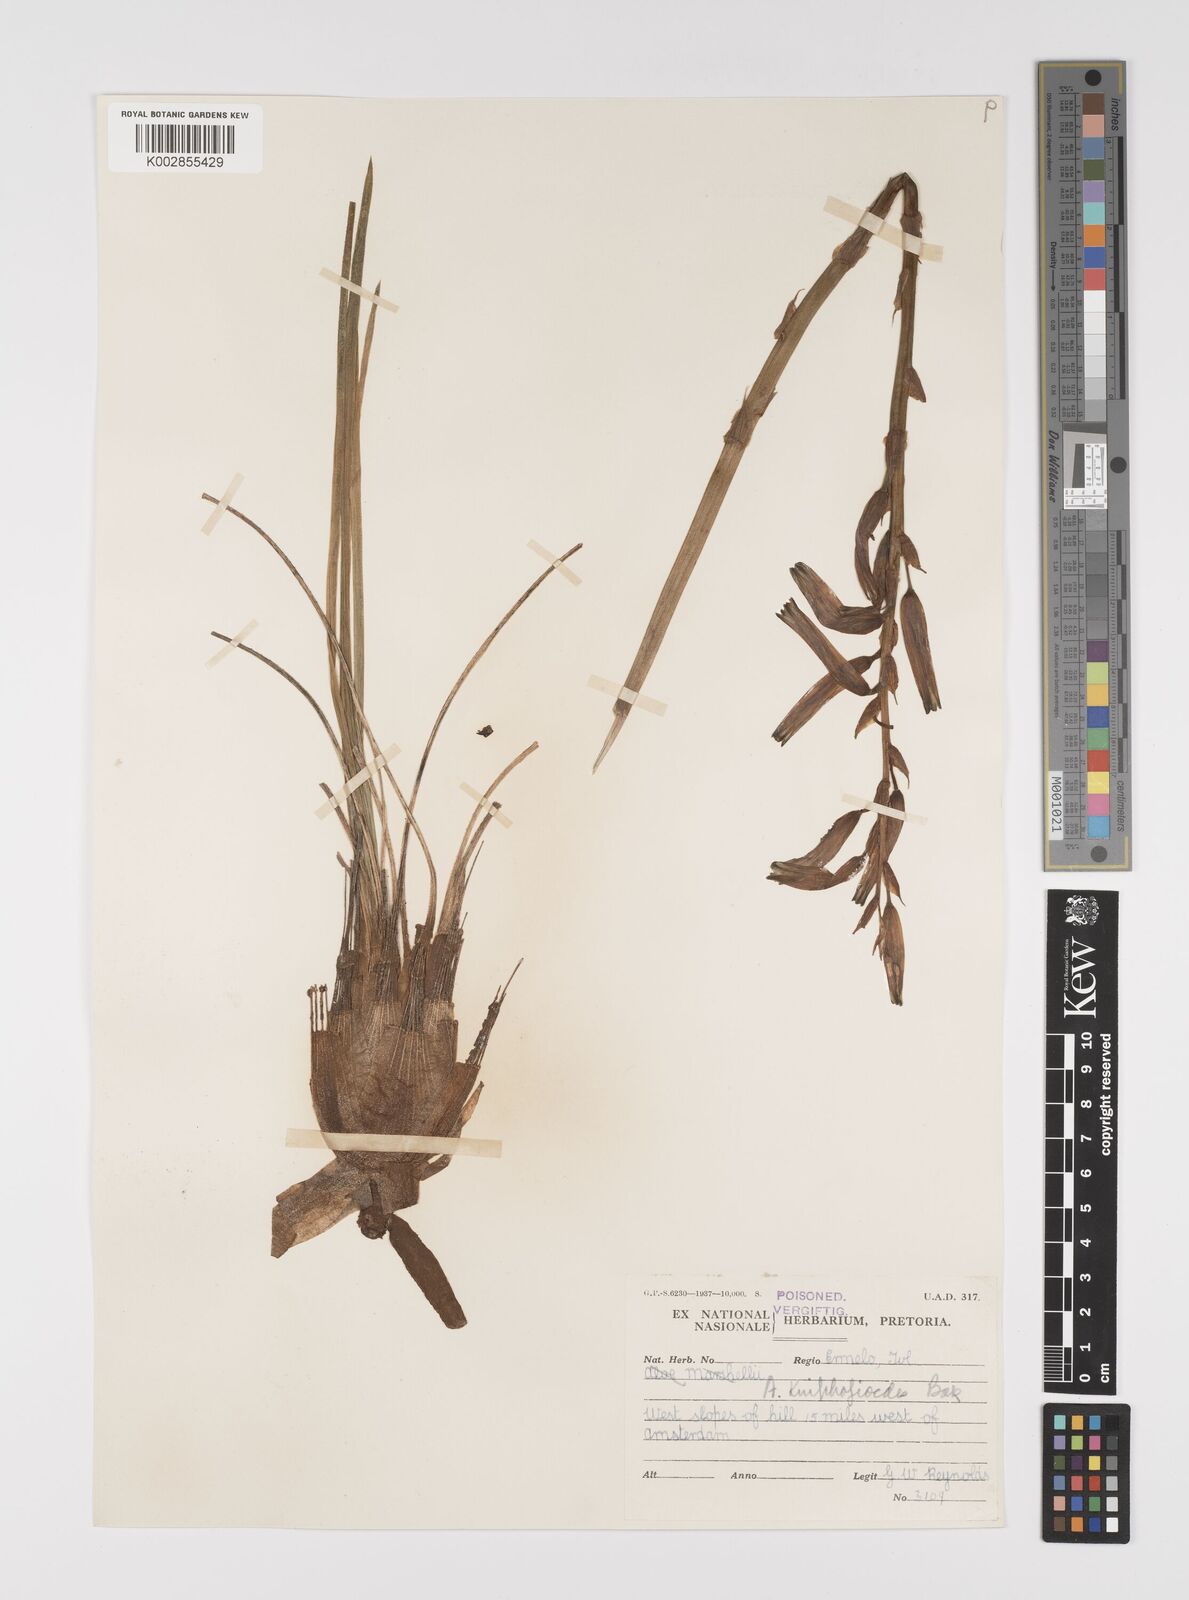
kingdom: Plantae
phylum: Tracheophyta
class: Liliopsida
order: Asparagales
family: Asphodelaceae
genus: Aloe
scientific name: Aloe kniphofioides
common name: Grass aloe
